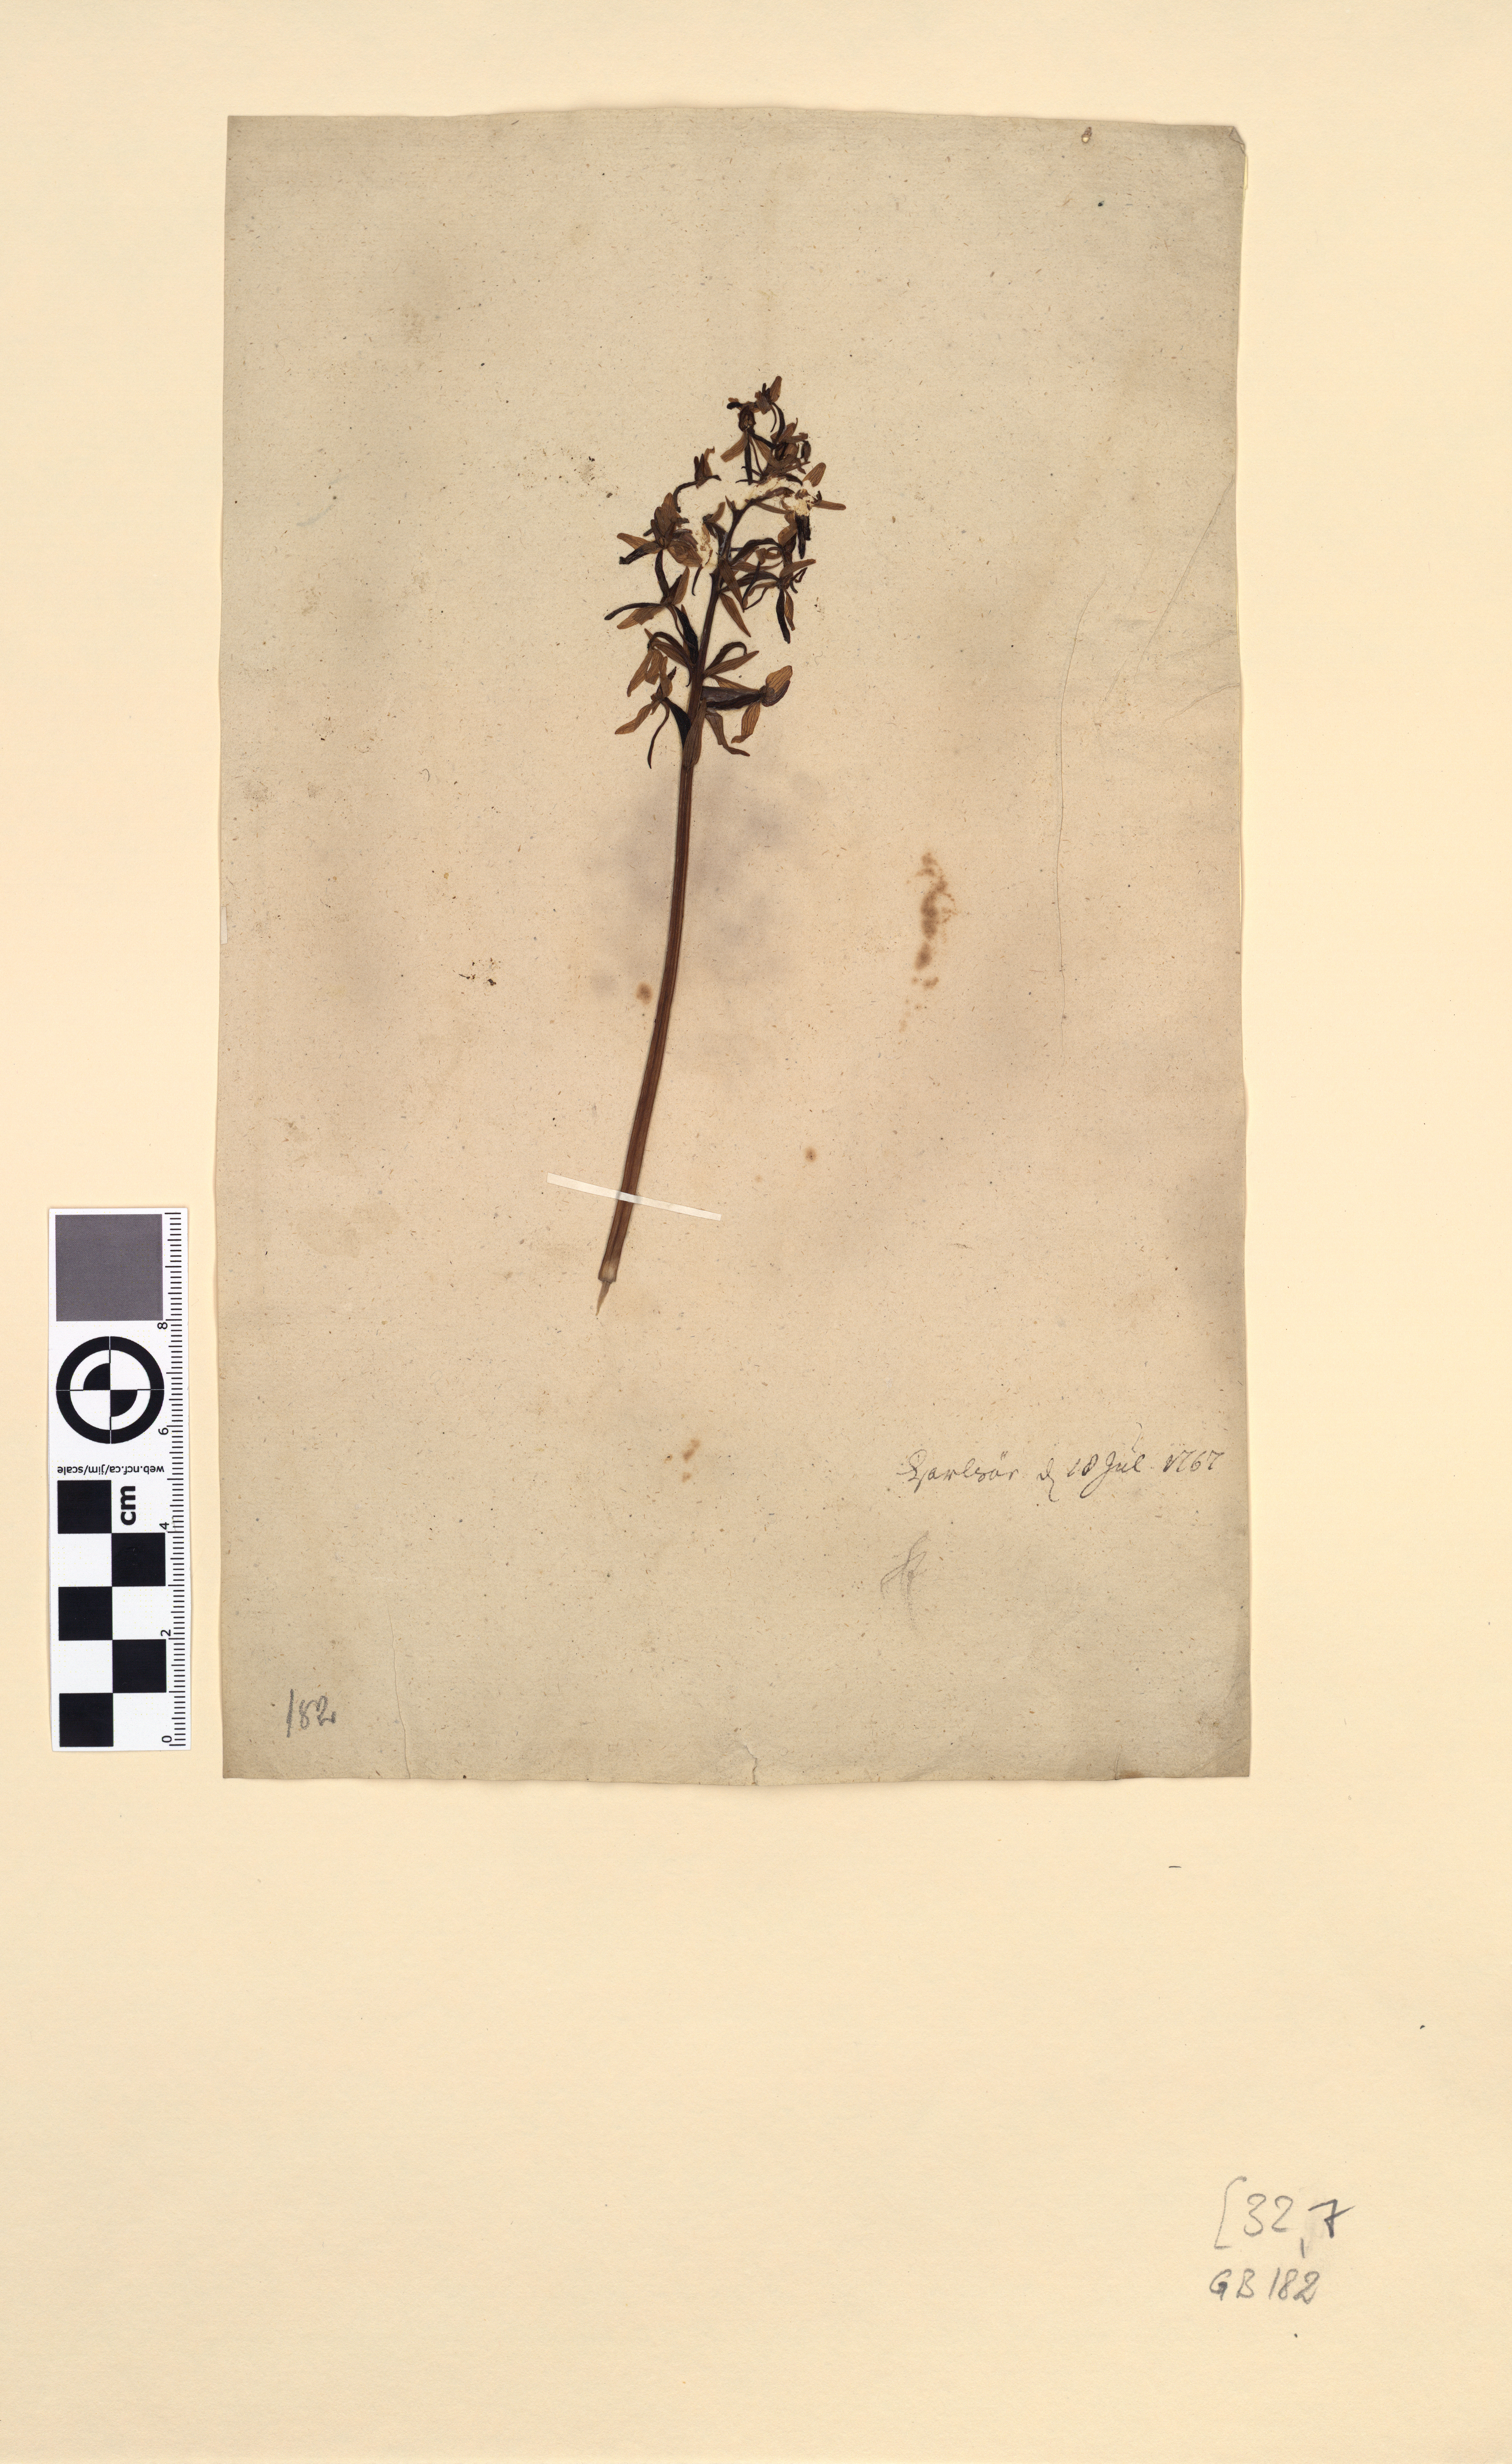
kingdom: Plantae
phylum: Tracheophyta
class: Liliopsida
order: Asparagales
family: Orchidaceae
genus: Platanthera
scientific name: Platanthera bifolia
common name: Lesser butterfly-orchid
